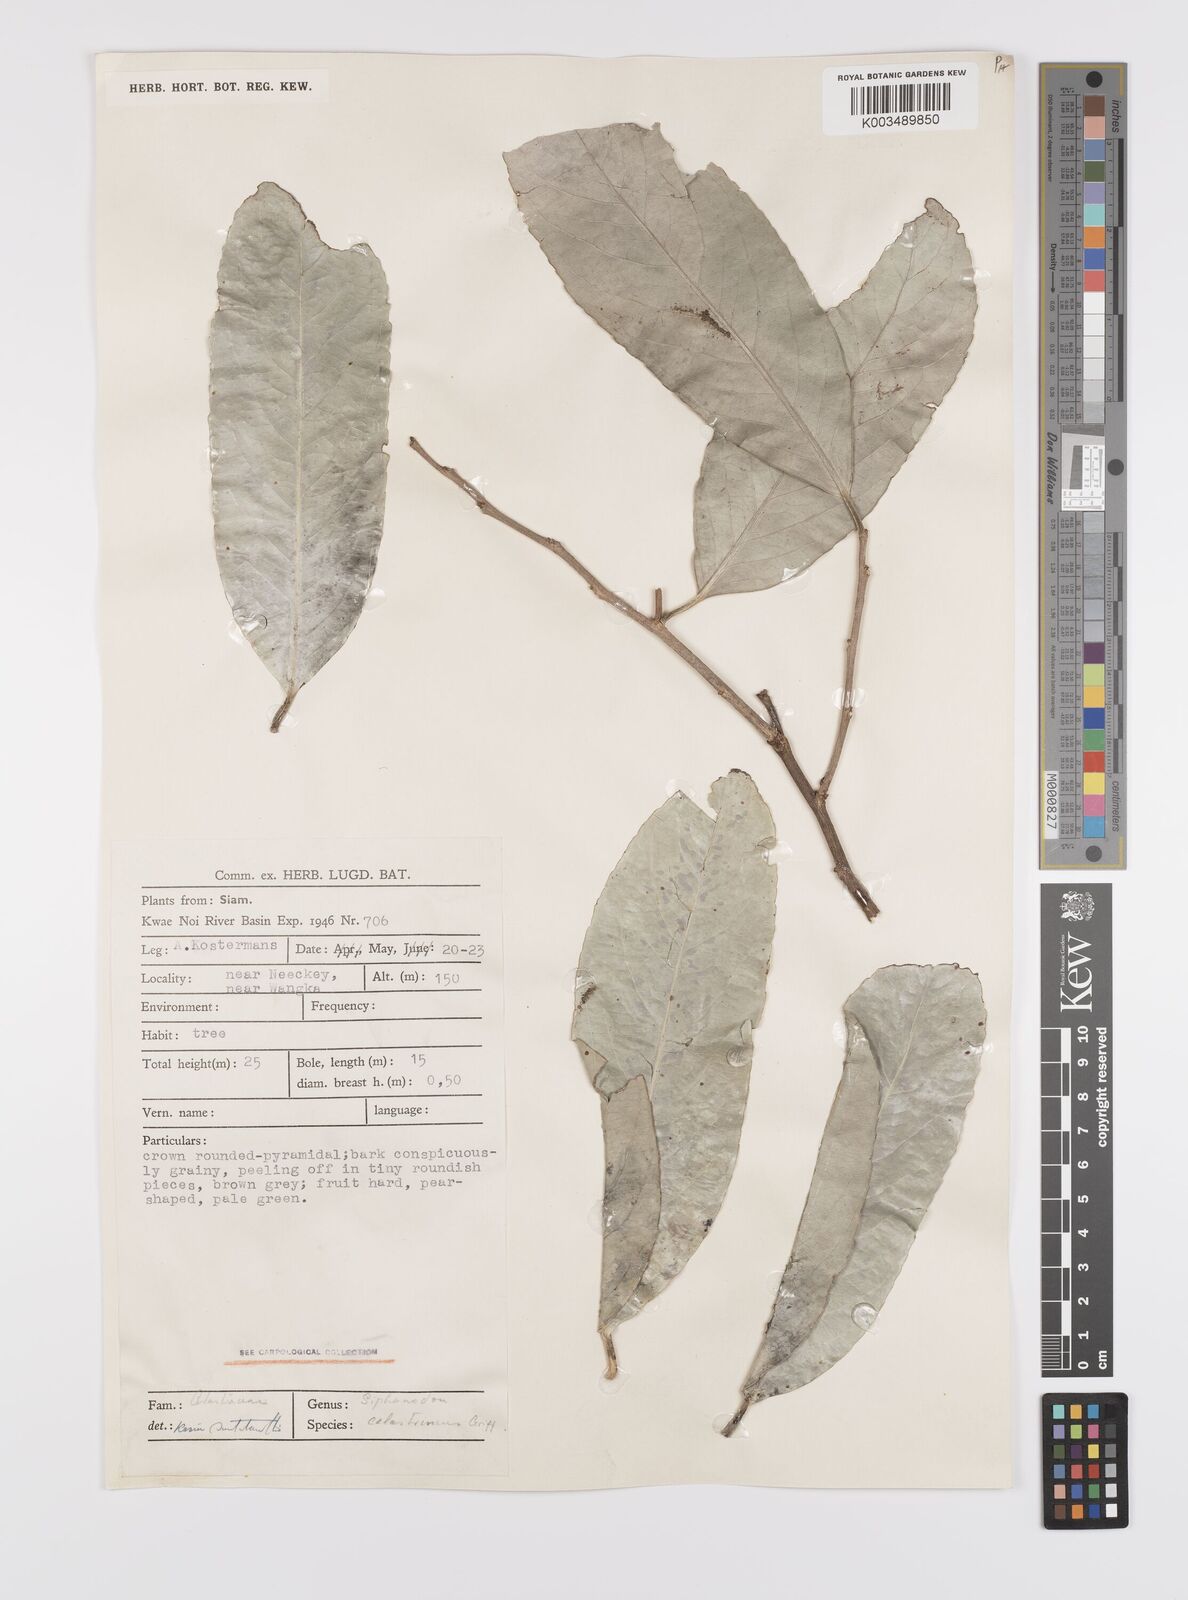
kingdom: Plantae
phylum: Tracheophyta
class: Magnoliopsida
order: Celastrales
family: Celastraceae
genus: Siphonodon
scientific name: Siphonodon celastrineus
